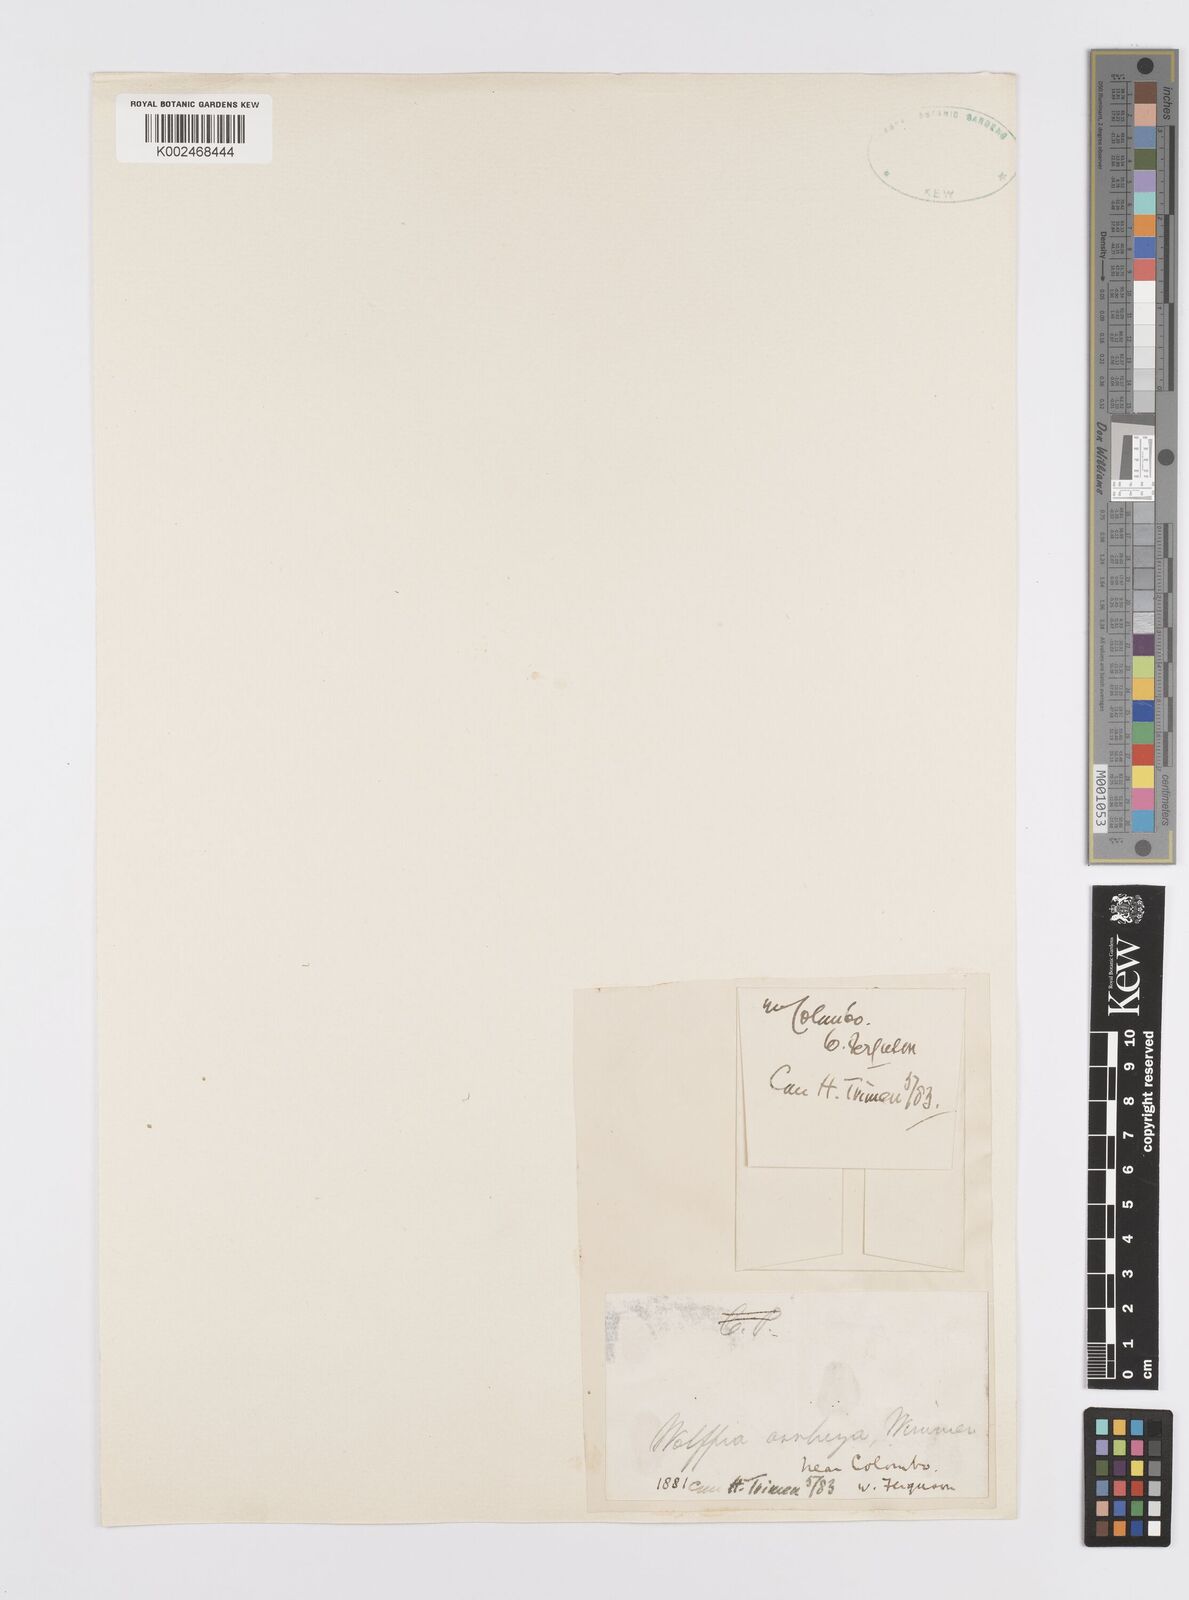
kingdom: Plantae
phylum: Tracheophyta
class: Liliopsida
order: Alismatales
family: Araceae
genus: Wolffia
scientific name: Wolffia arrhiza
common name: Rootless duckweed
